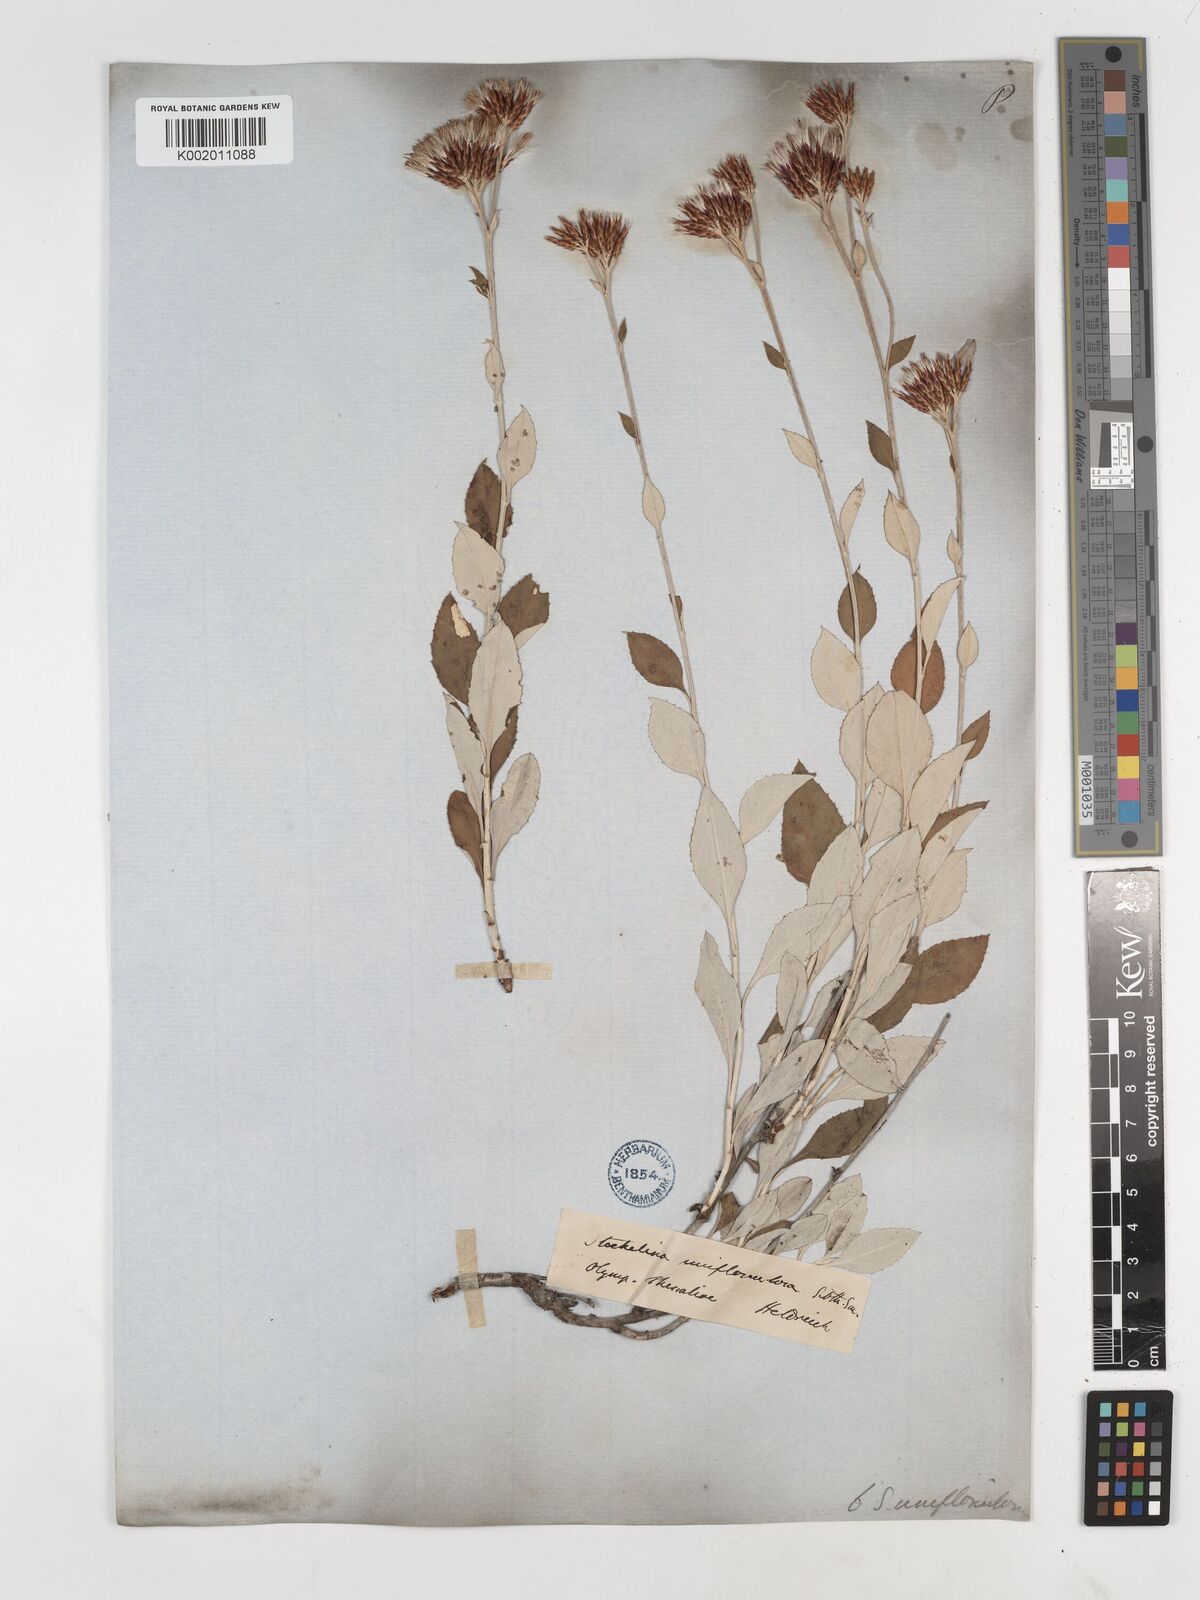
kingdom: Plantae
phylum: Tracheophyta
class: Magnoliopsida
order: Asterales
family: Asteraceae
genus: Staehelina
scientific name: Staehelina uniflosculosa
